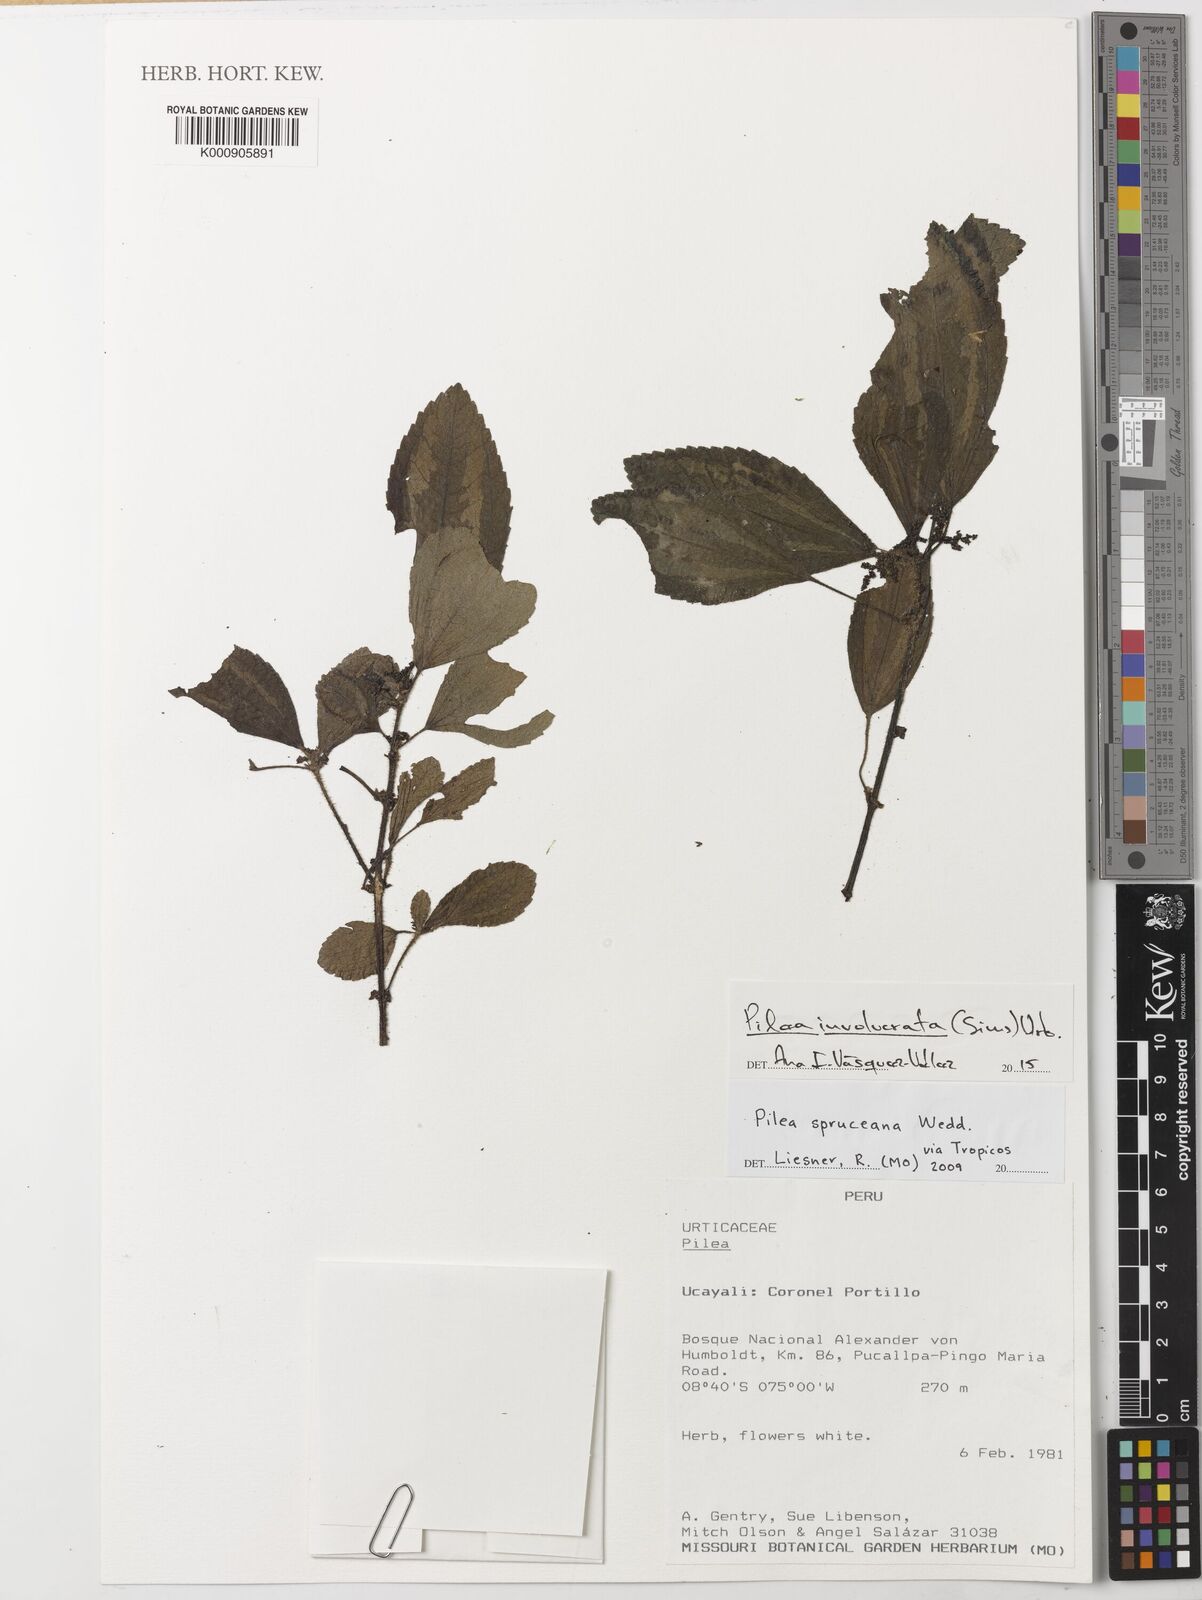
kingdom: Plantae
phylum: Tracheophyta
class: Magnoliopsida
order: Rosales
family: Urticaceae
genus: Pilea
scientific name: Pilea
